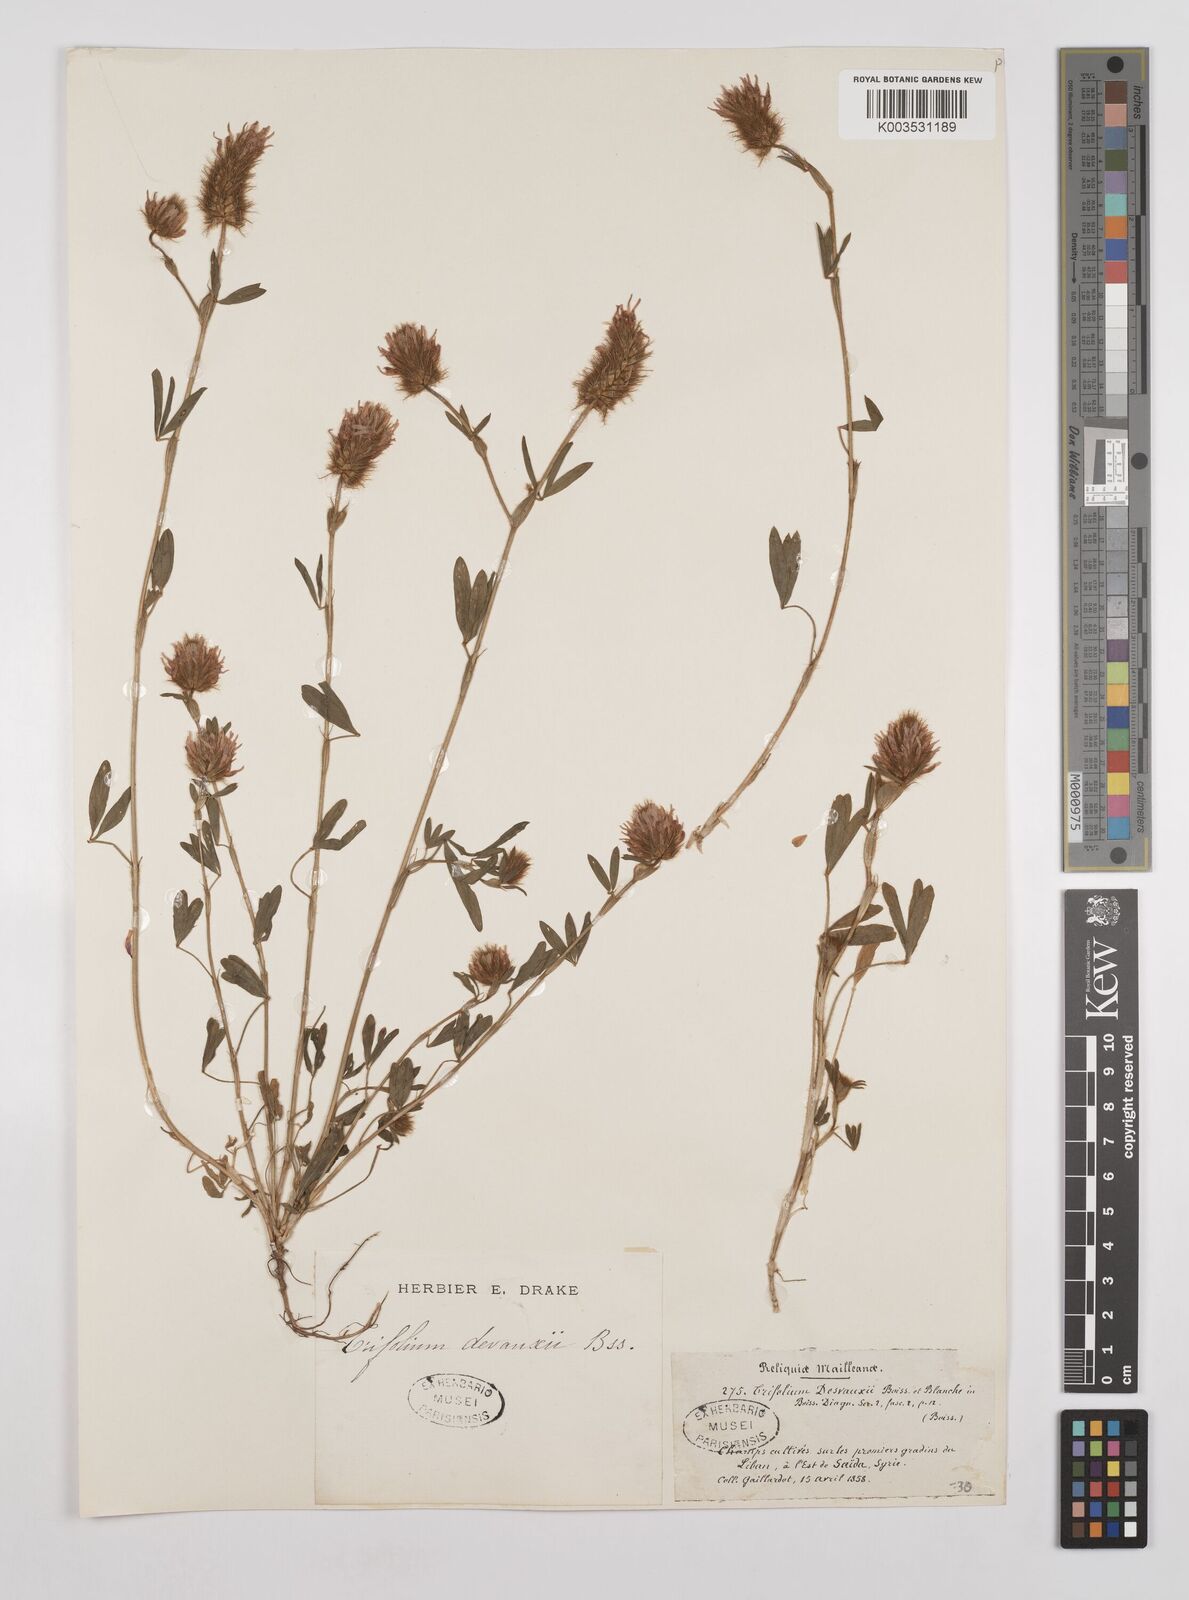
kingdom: Plantae
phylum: Tracheophyta
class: Magnoliopsida
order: Fabales
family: Fabaceae
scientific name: Fabaceae
